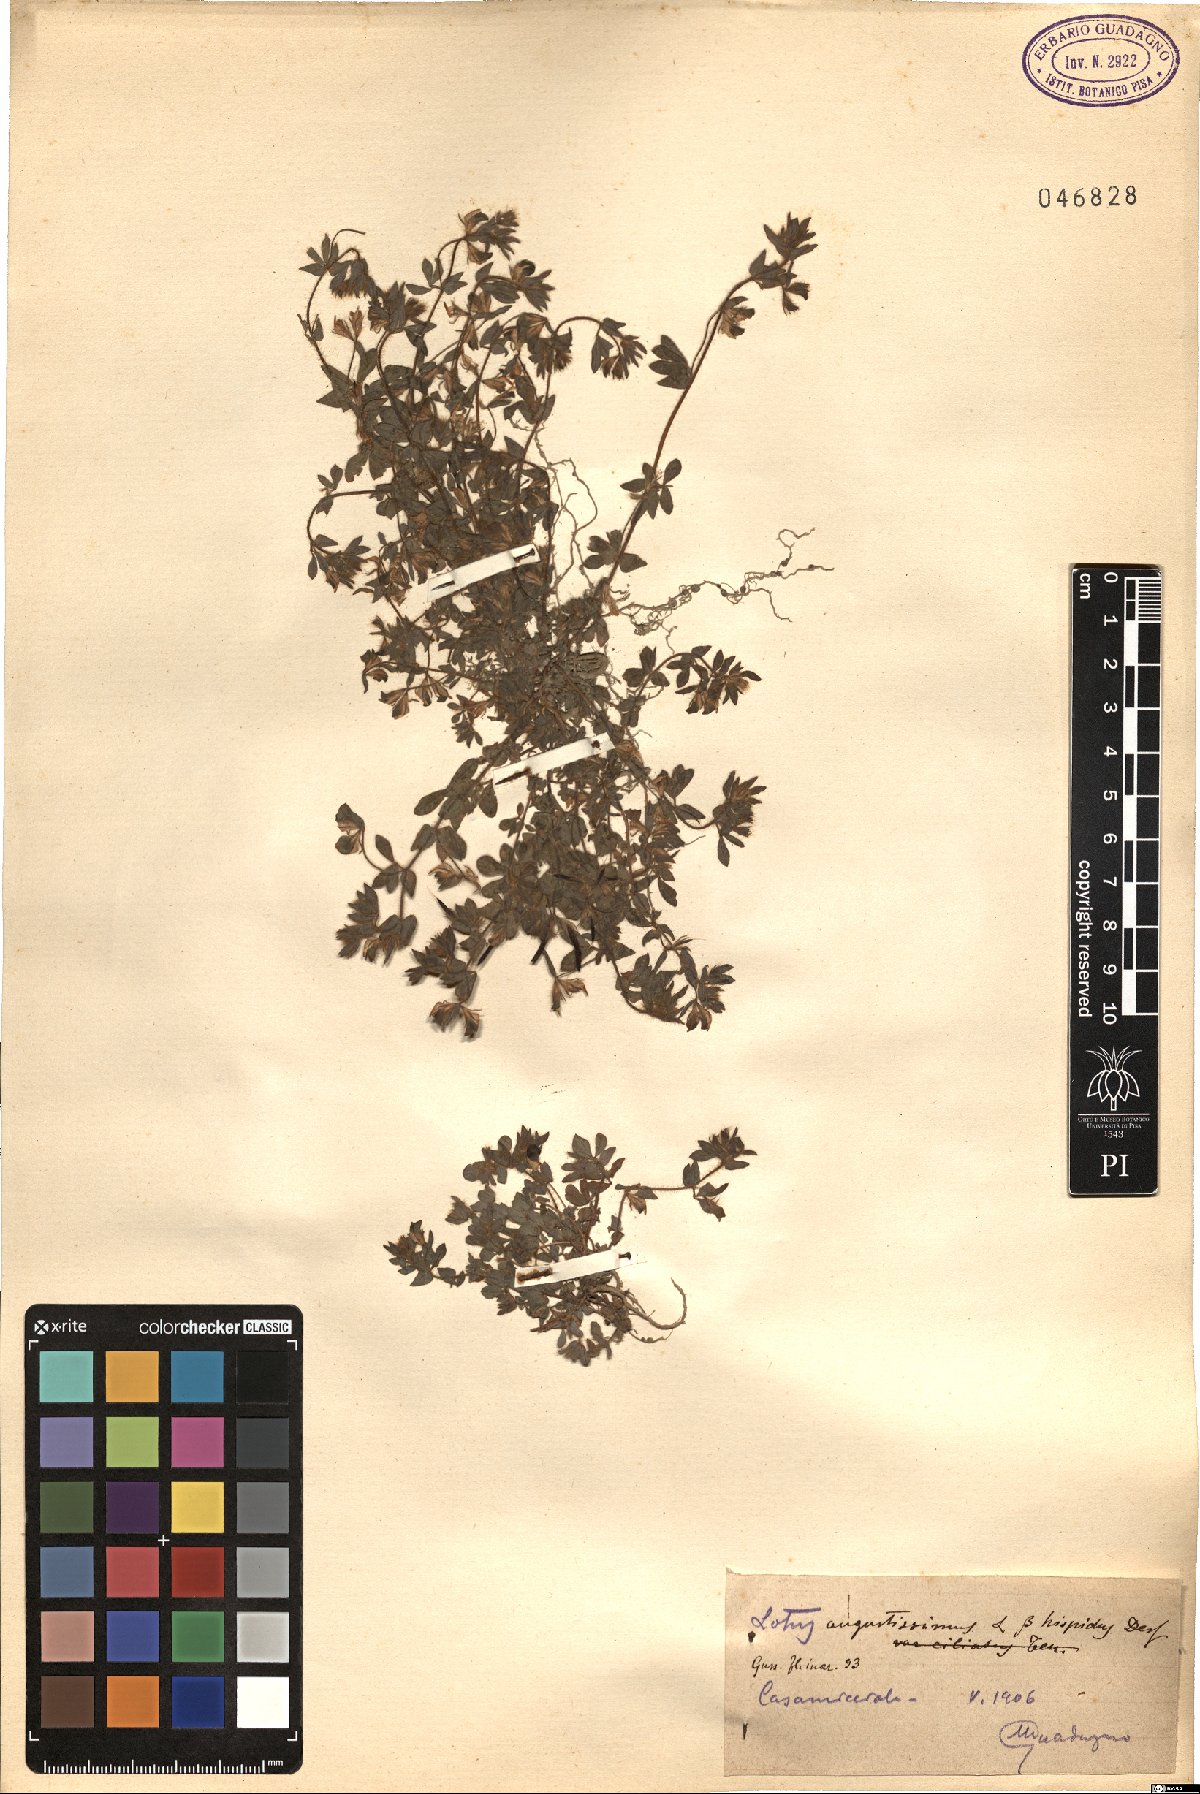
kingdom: Plantae
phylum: Tracheophyta
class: Magnoliopsida
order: Fabales
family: Fabaceae
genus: Lotus
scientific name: Lotus parviflorus
